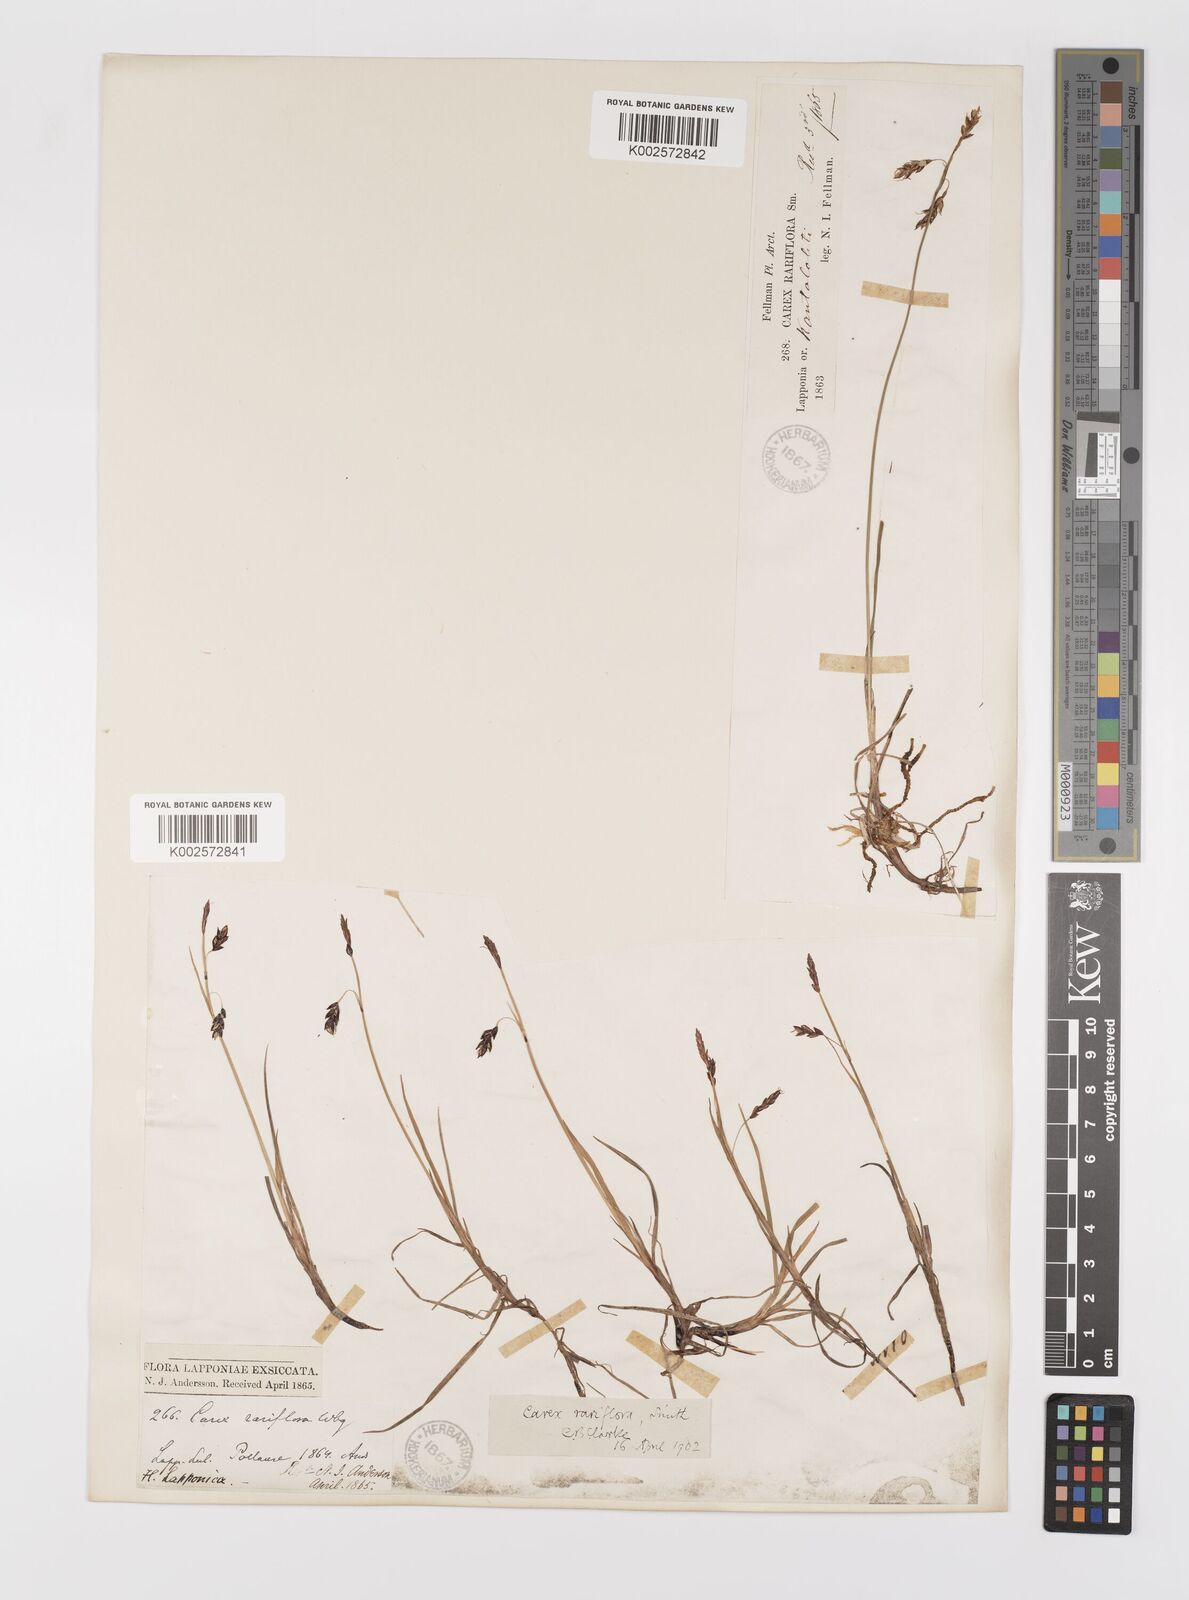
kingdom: Plantae
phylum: Tracheophyta
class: Liliopsida
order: Poales
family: Cyperaceae
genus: Carex
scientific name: Carex rariflora
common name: Loose-flowered alpine sedge
